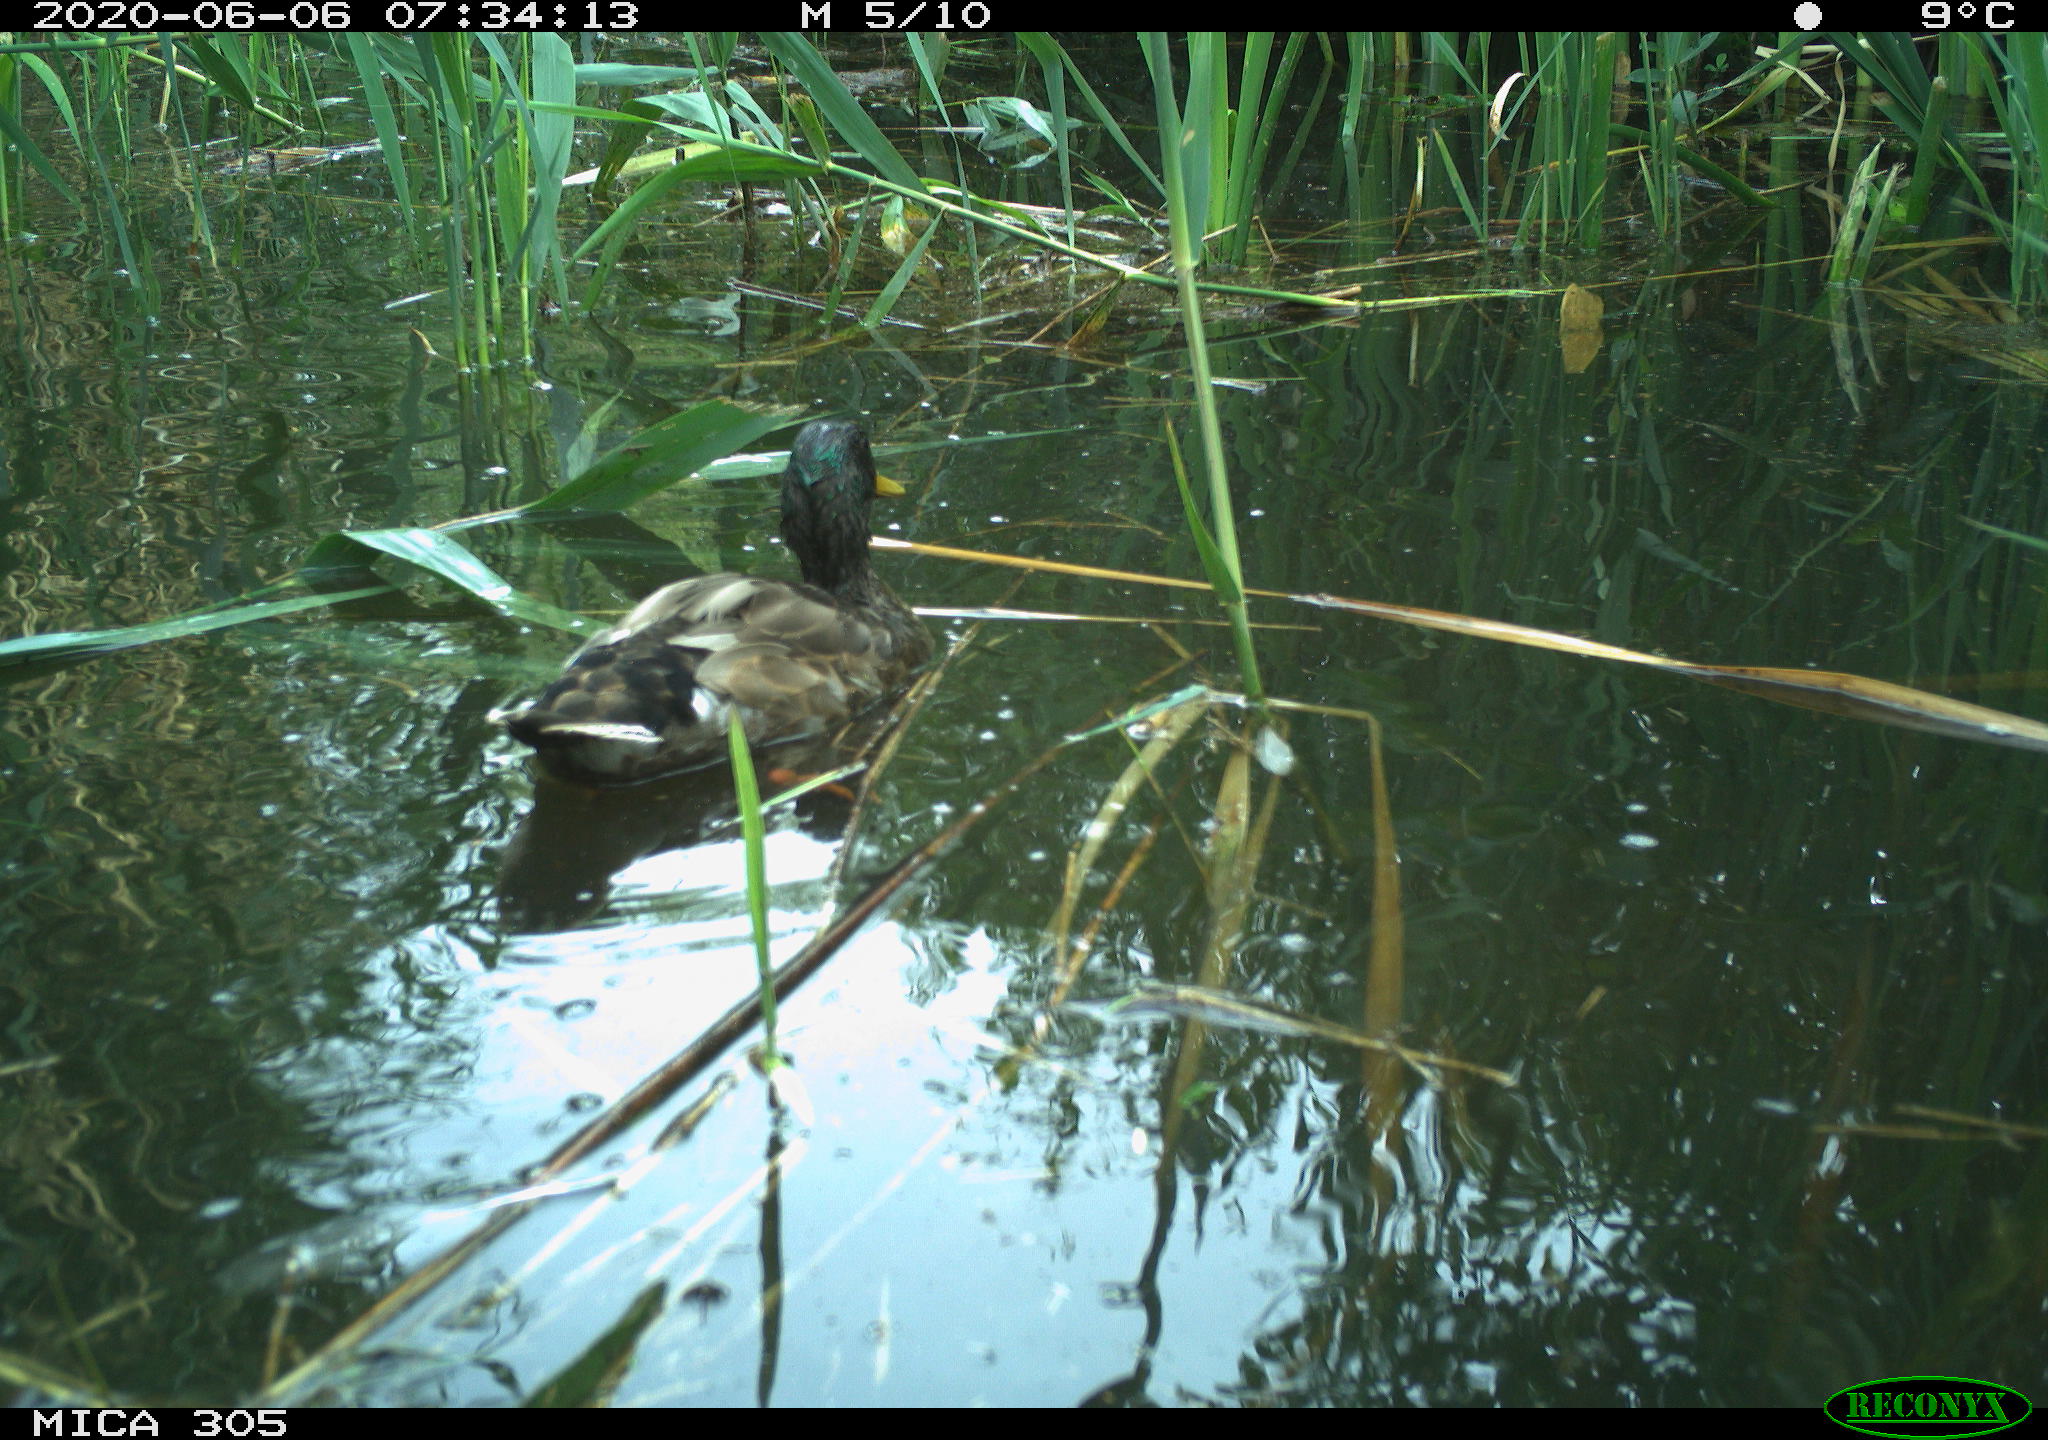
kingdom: Animalia
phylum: Chordata
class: Aves
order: Anseriformes
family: Anatidae
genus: Anas
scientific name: Anas platyrhynchos
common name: Mallard
